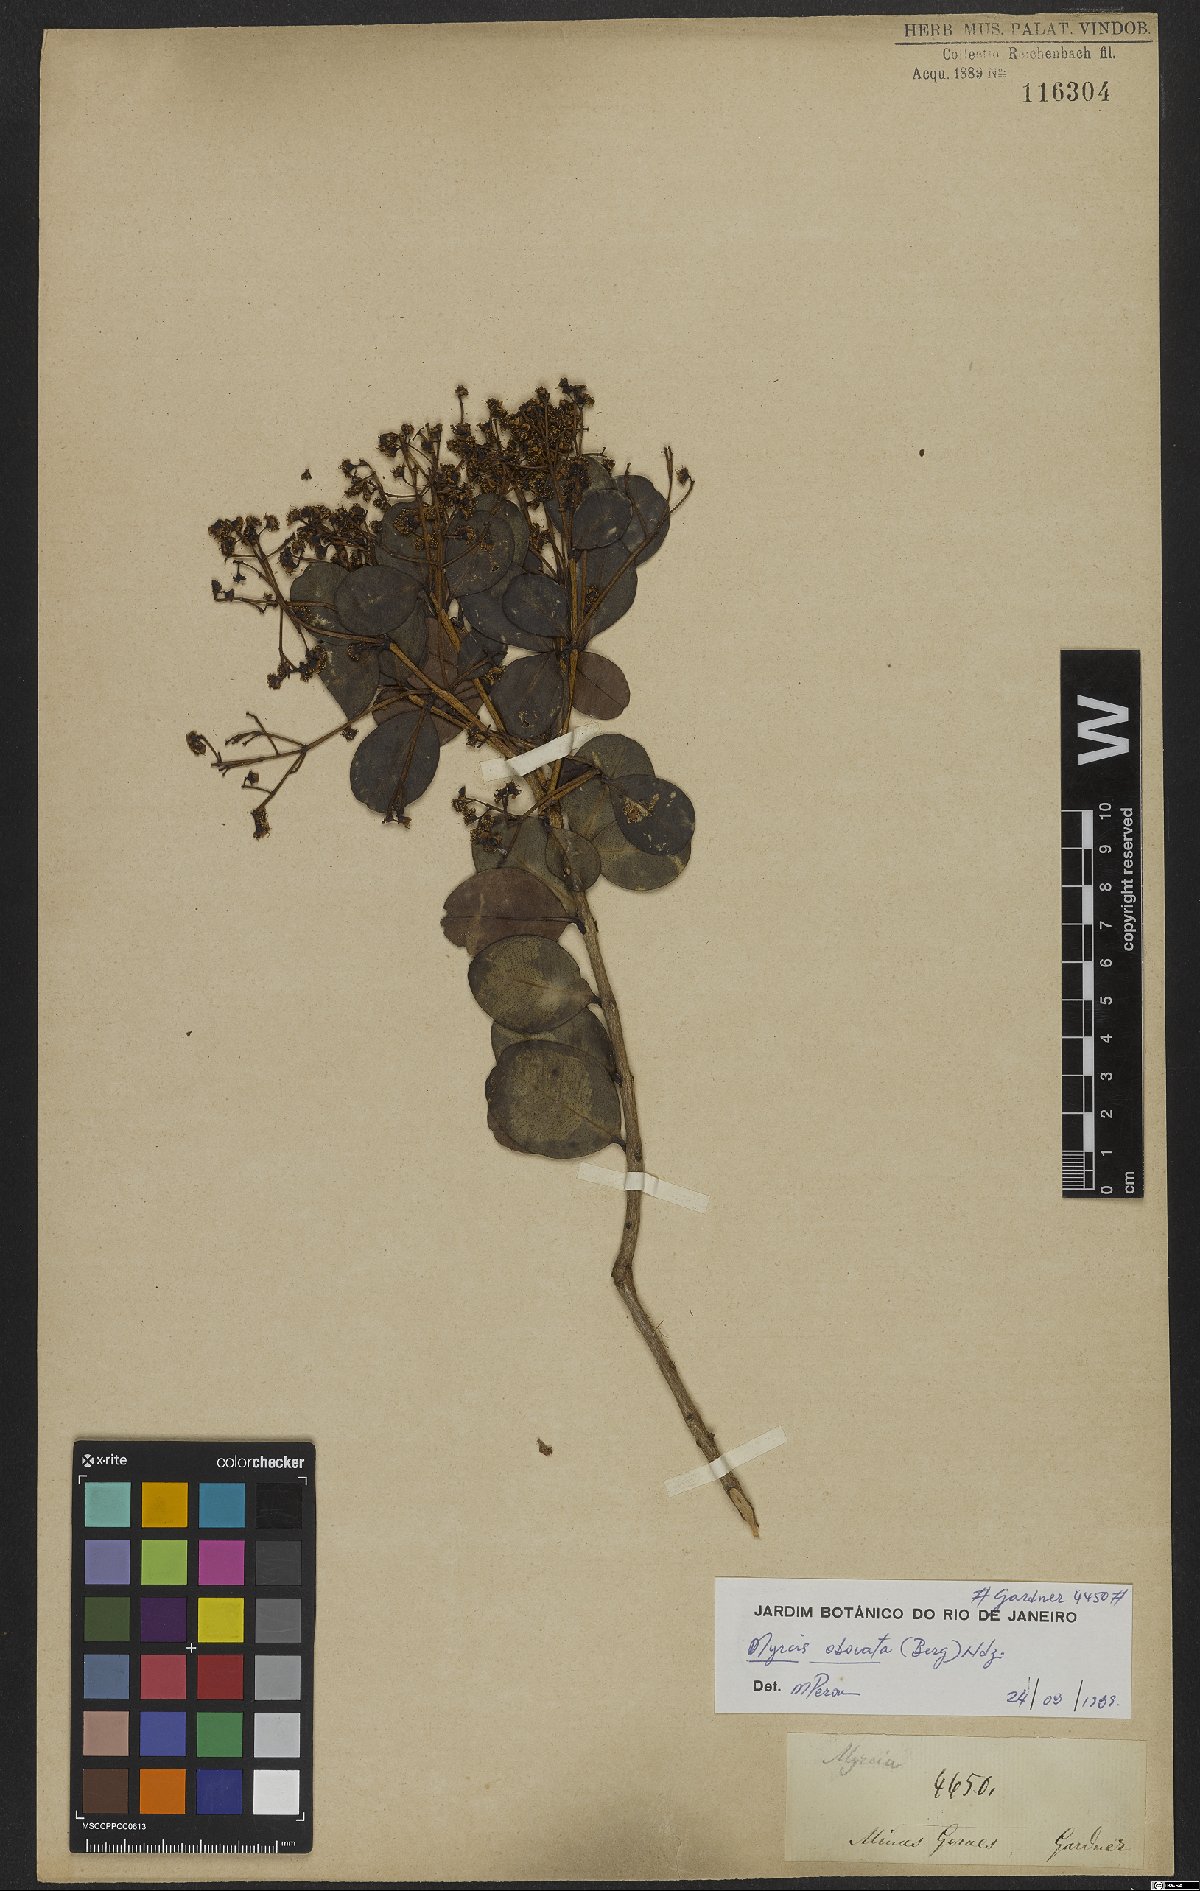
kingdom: Plantae
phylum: Tracheophyta
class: Magnoliopsida
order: Myrtales
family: Myrtaceae
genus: Myrcia
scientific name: Myrcia obovata
